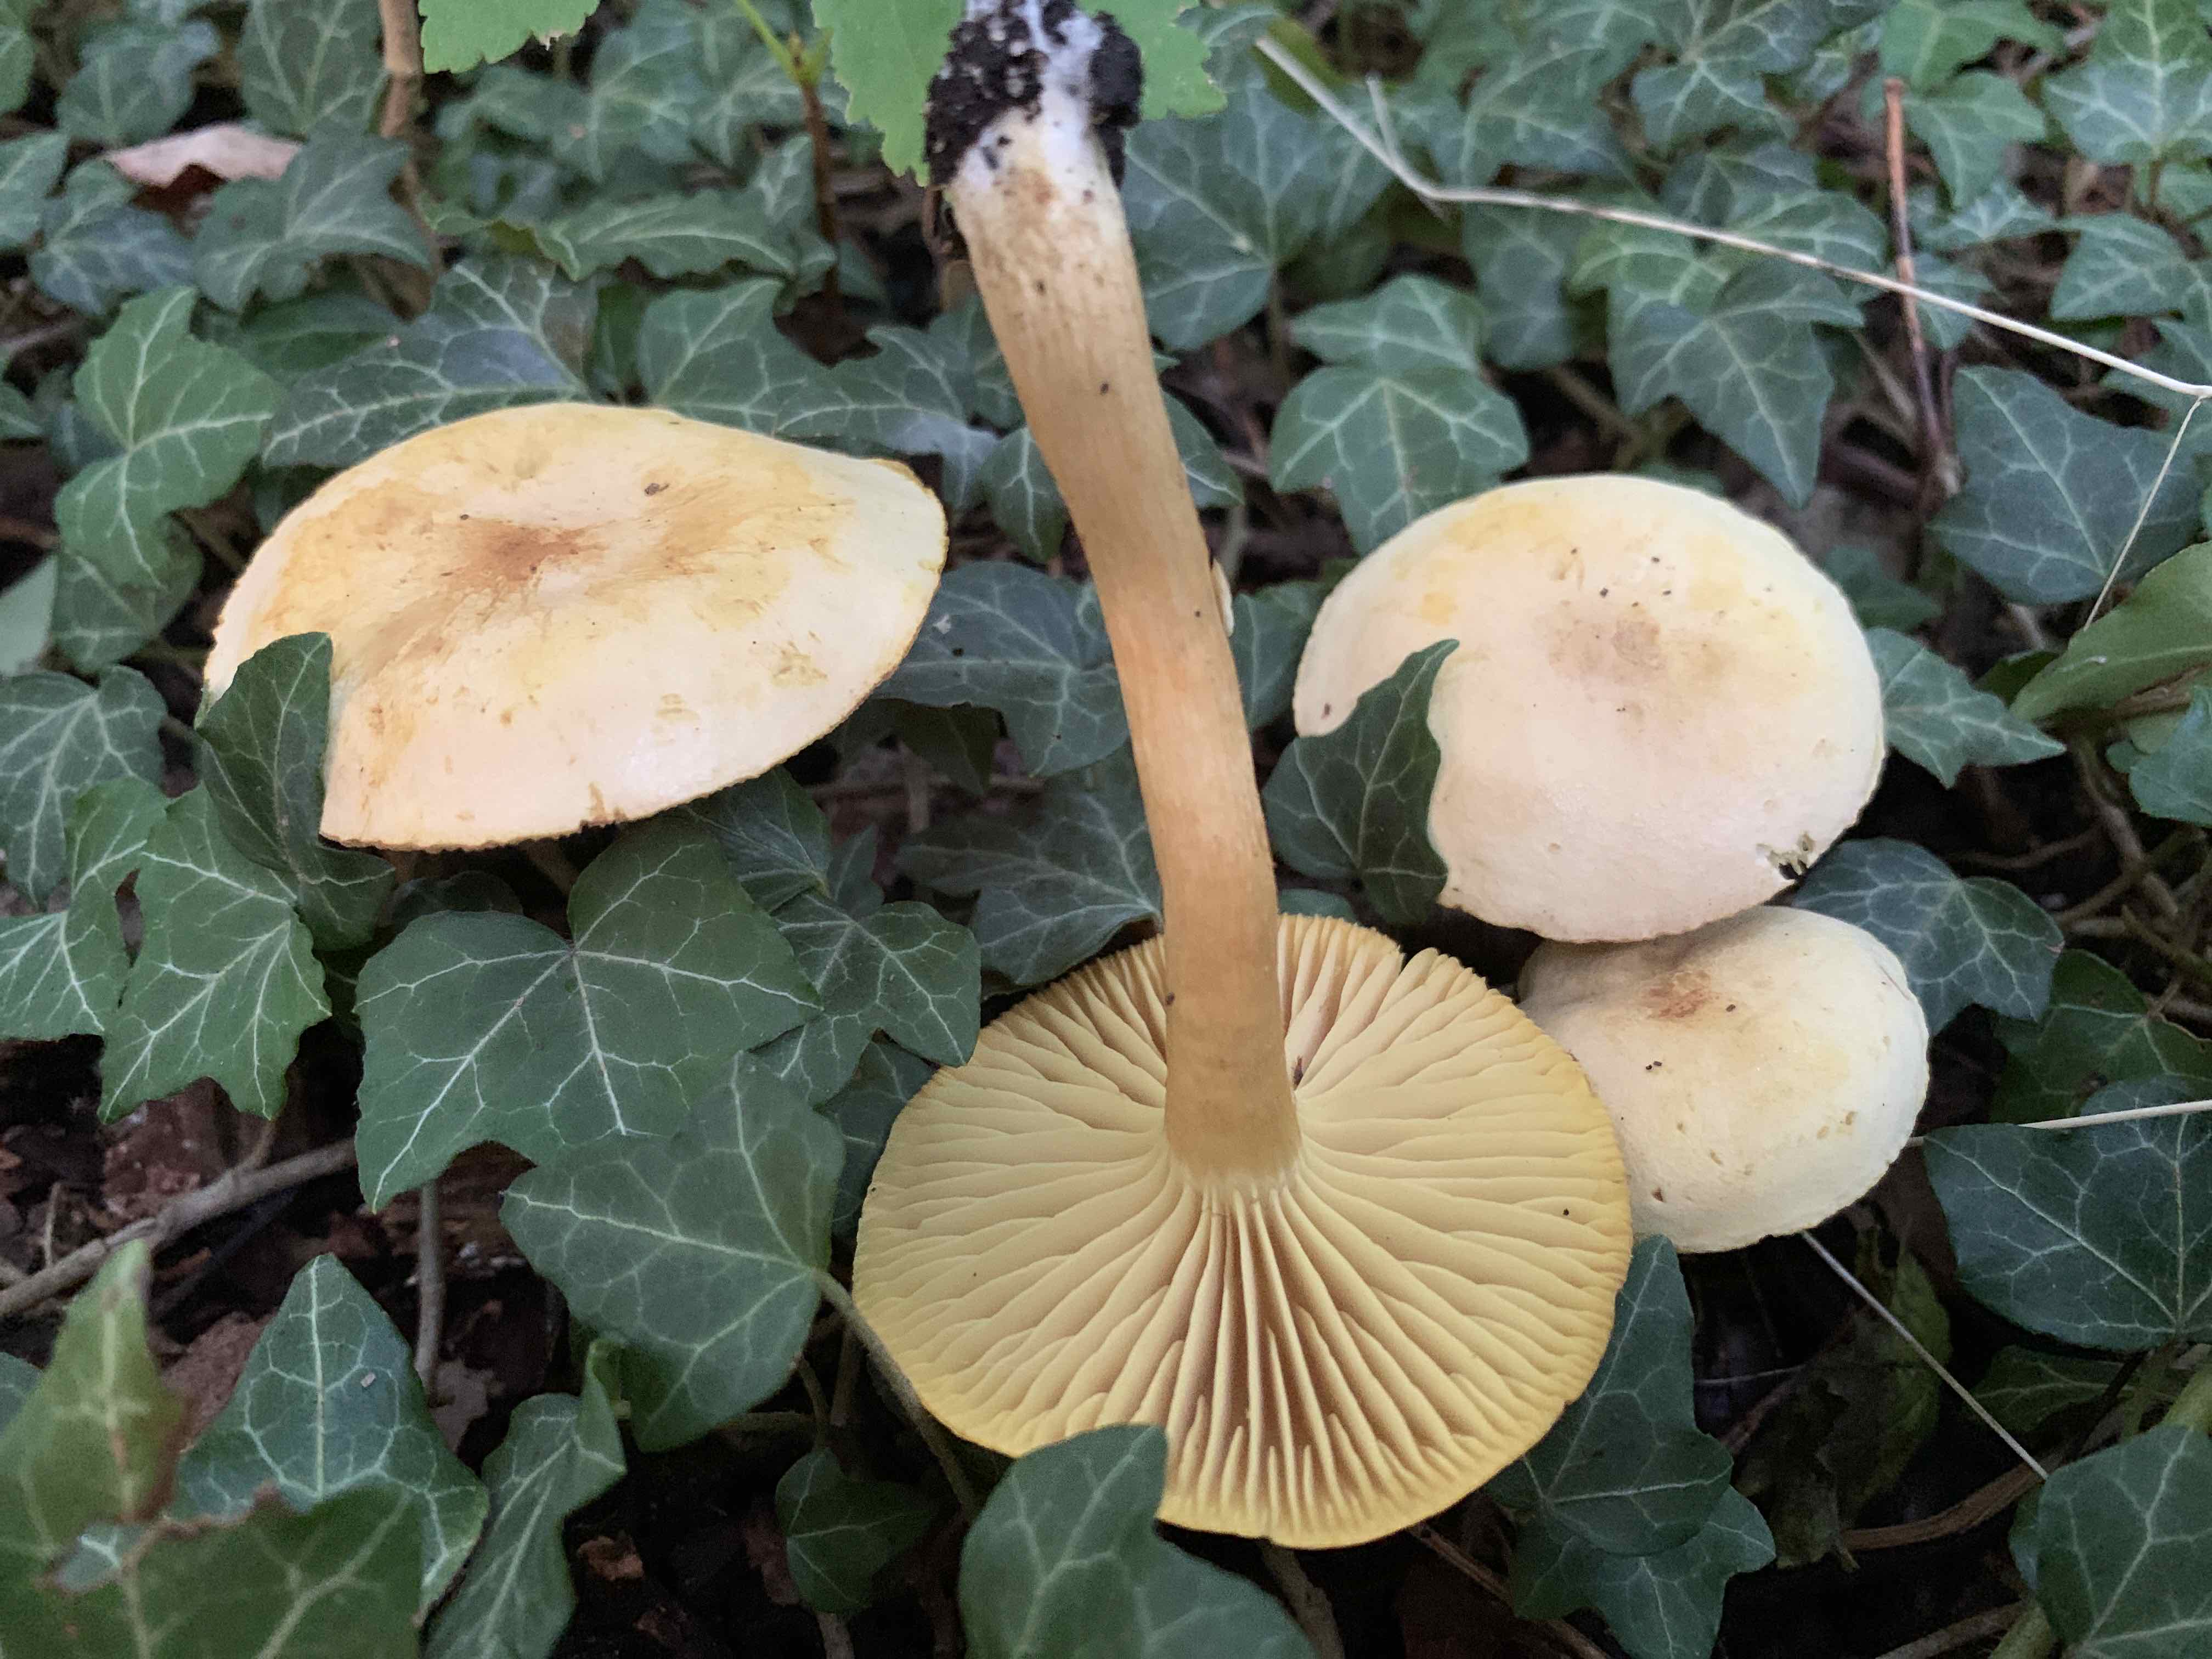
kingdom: Fungi
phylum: Basidiomycota
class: Agaricomycetes
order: Agaricales
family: Tricholomataceae
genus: Tricholoma
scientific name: Tricholoma sulphureum
